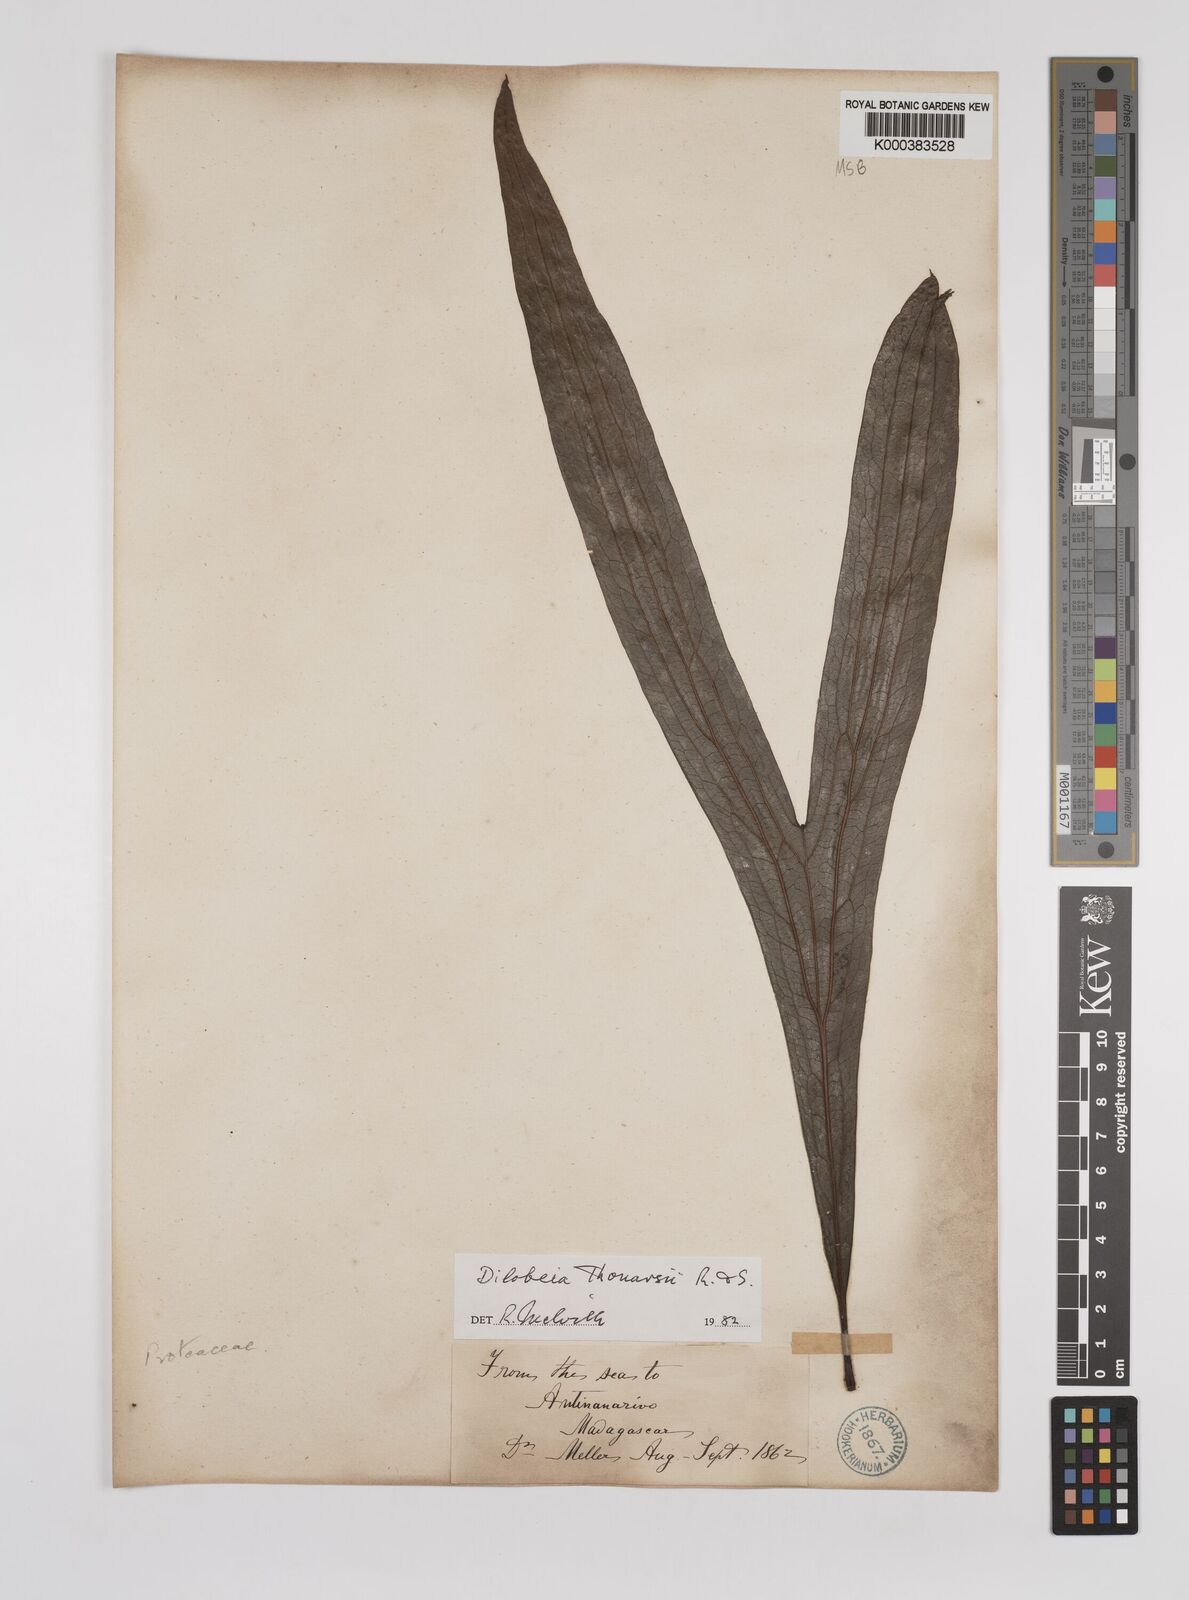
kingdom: Plantae
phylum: Tracheophyta
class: Magnoliopsida
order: Proteales
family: Proteaceae
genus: Dilobeia
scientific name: Dilobeia thouarsii
